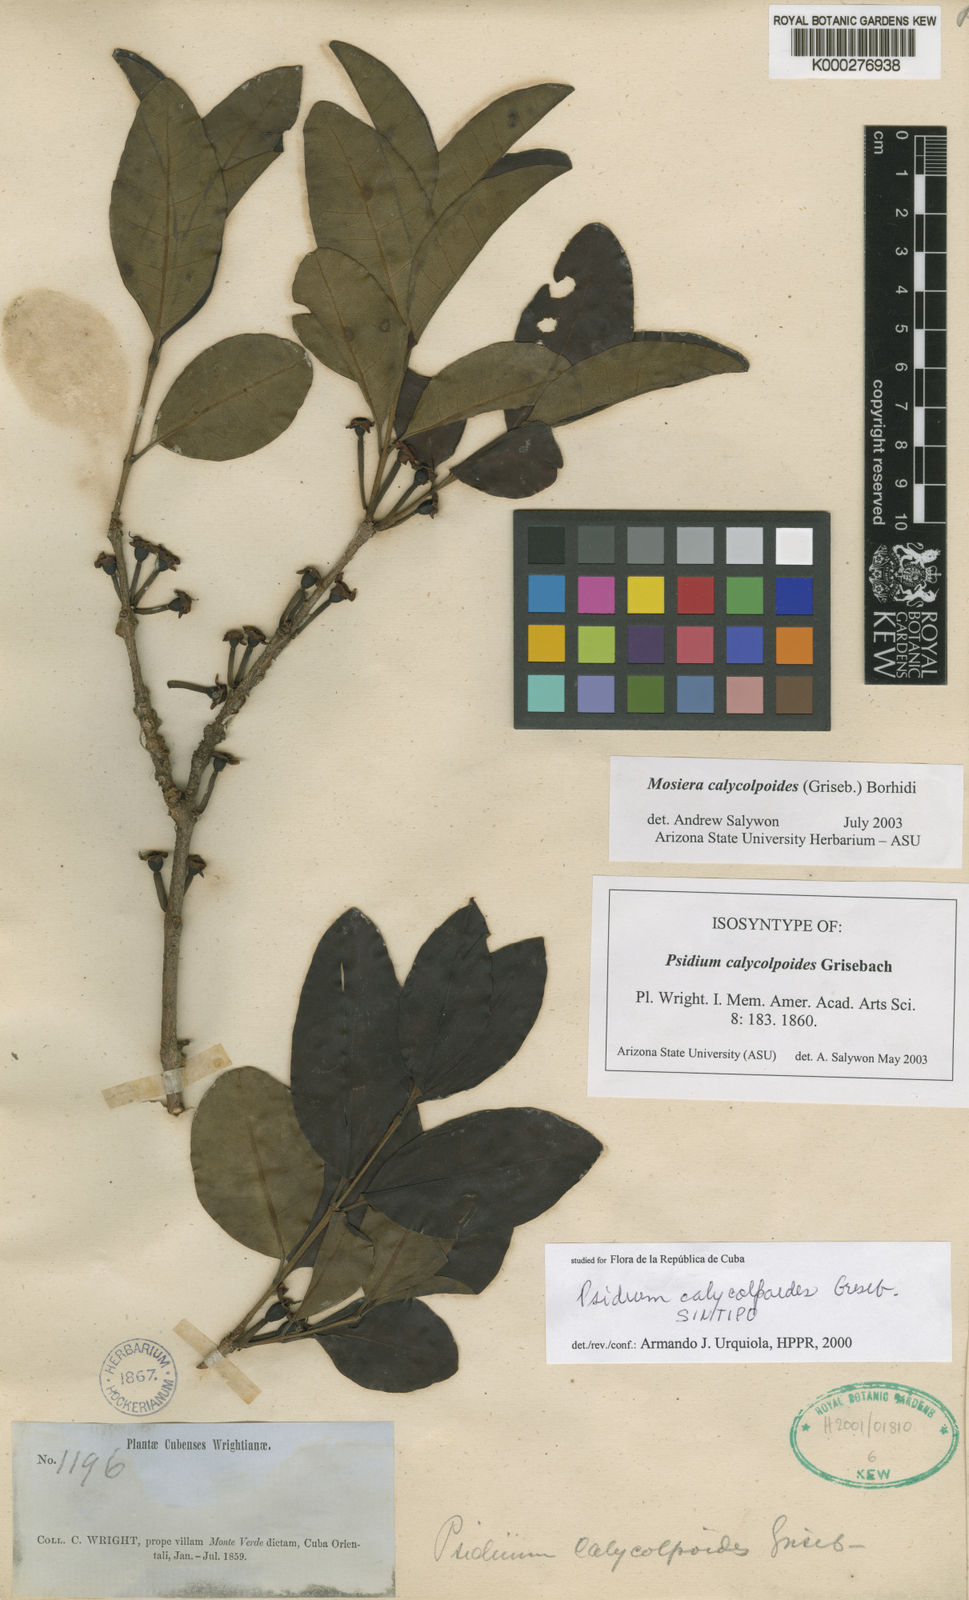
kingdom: Plantae
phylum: Tracheophyta
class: Magnoliopsida
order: Myrtales
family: Myrtaceae
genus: Mosiera
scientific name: Mosiera calycolpoides
